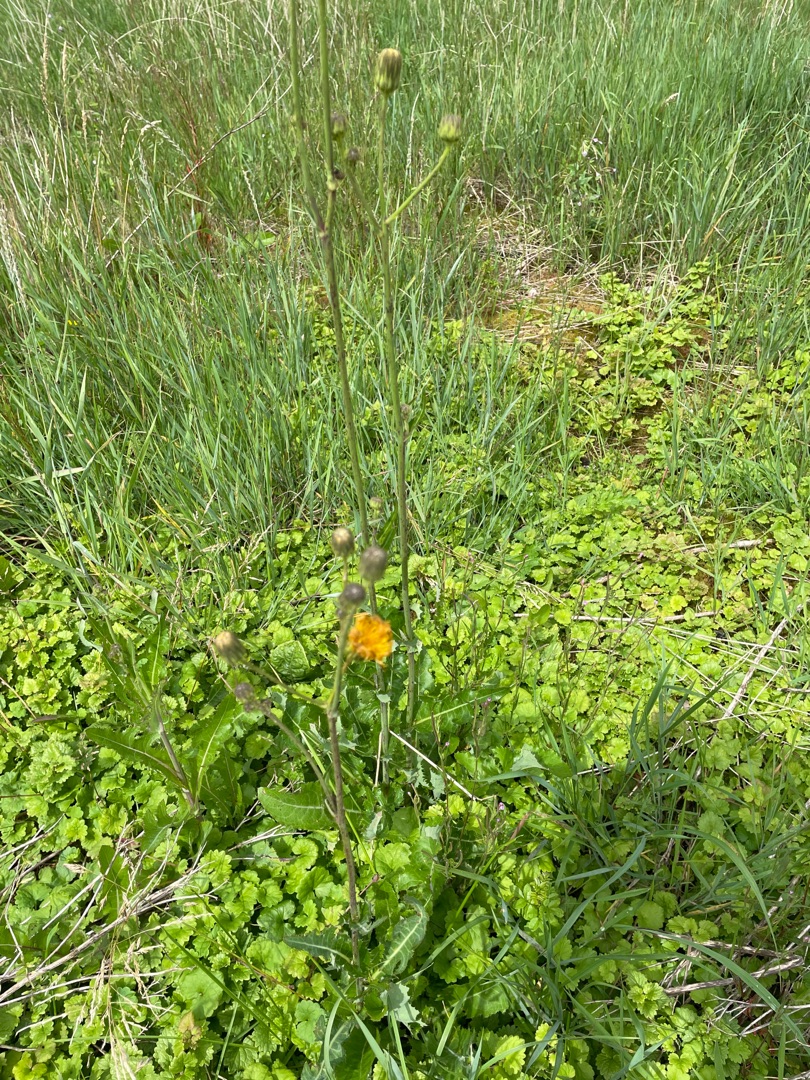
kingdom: Plantae
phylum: Tracheophyta
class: Magnoliopsida
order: Asterales
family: Asteraceae
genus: Sonchus
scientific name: Sonchus arvensis
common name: Ager-svinemælk
